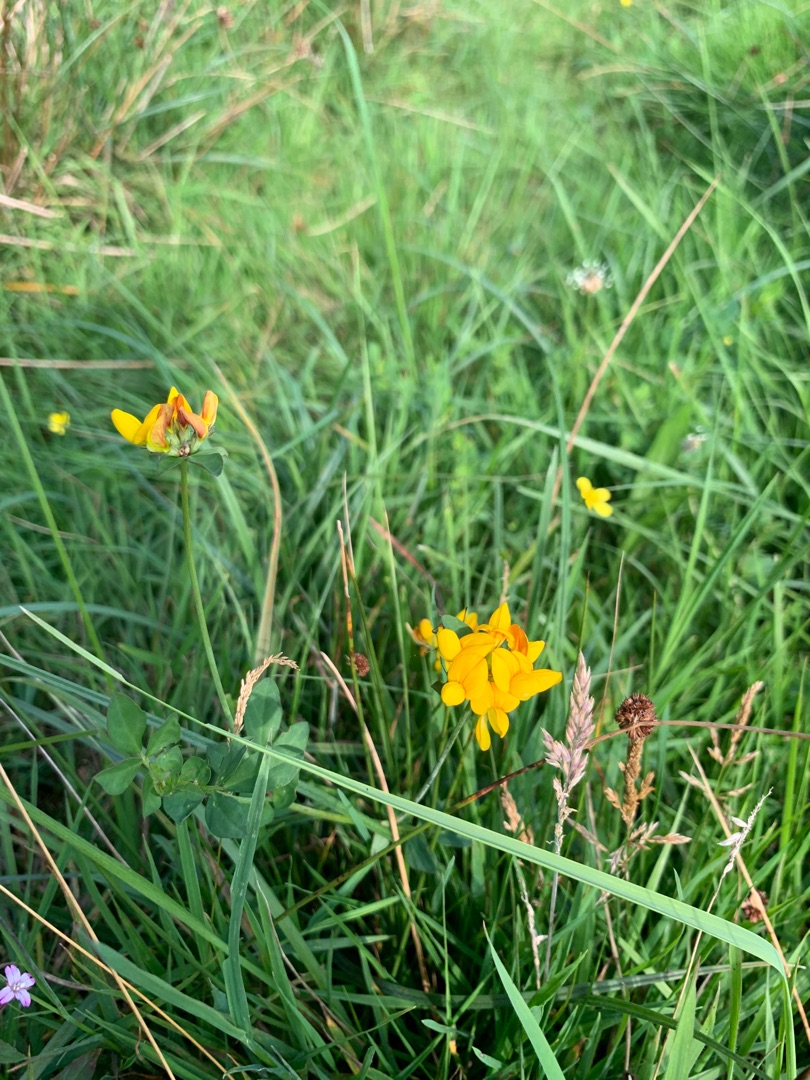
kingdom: Plantae
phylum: Tracheophyta
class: Magnoliopsida
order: Fabales
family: Fabaceae
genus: Lotus
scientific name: Lotus pedunculatus
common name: Sump-kællingetand
